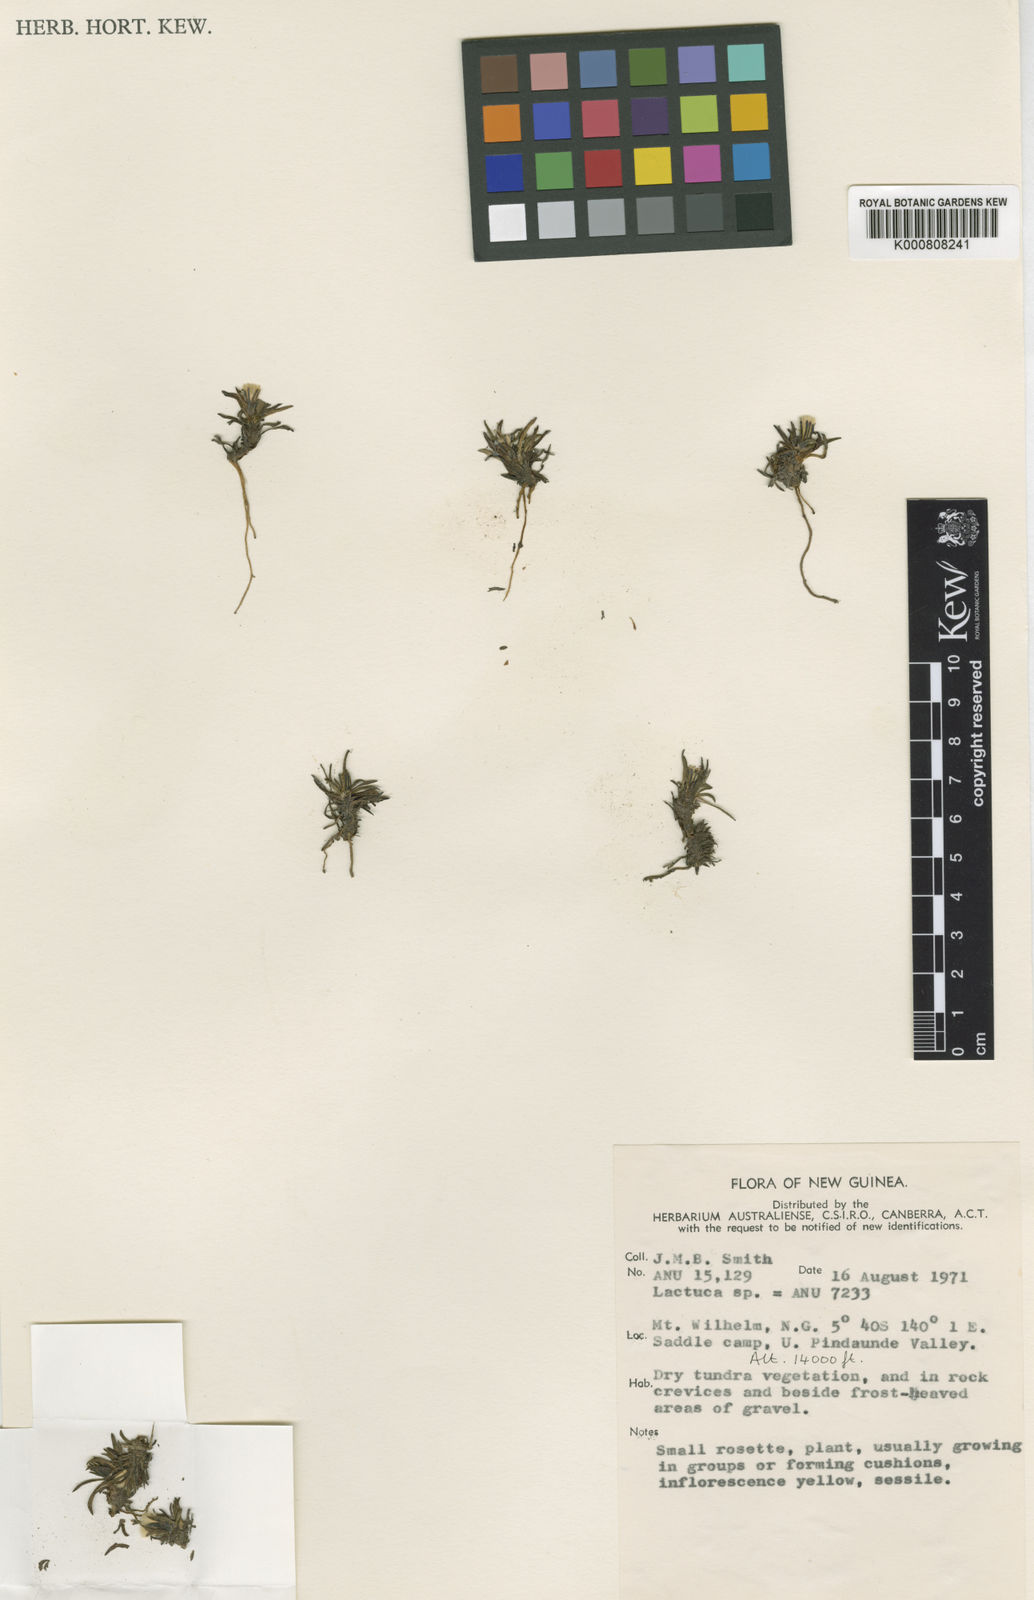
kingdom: Plantae
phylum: Tracheophyta
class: Magnoliopsida
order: Asterales
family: Asteraceae
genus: Ixeridium
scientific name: Ixeridium subacaule
